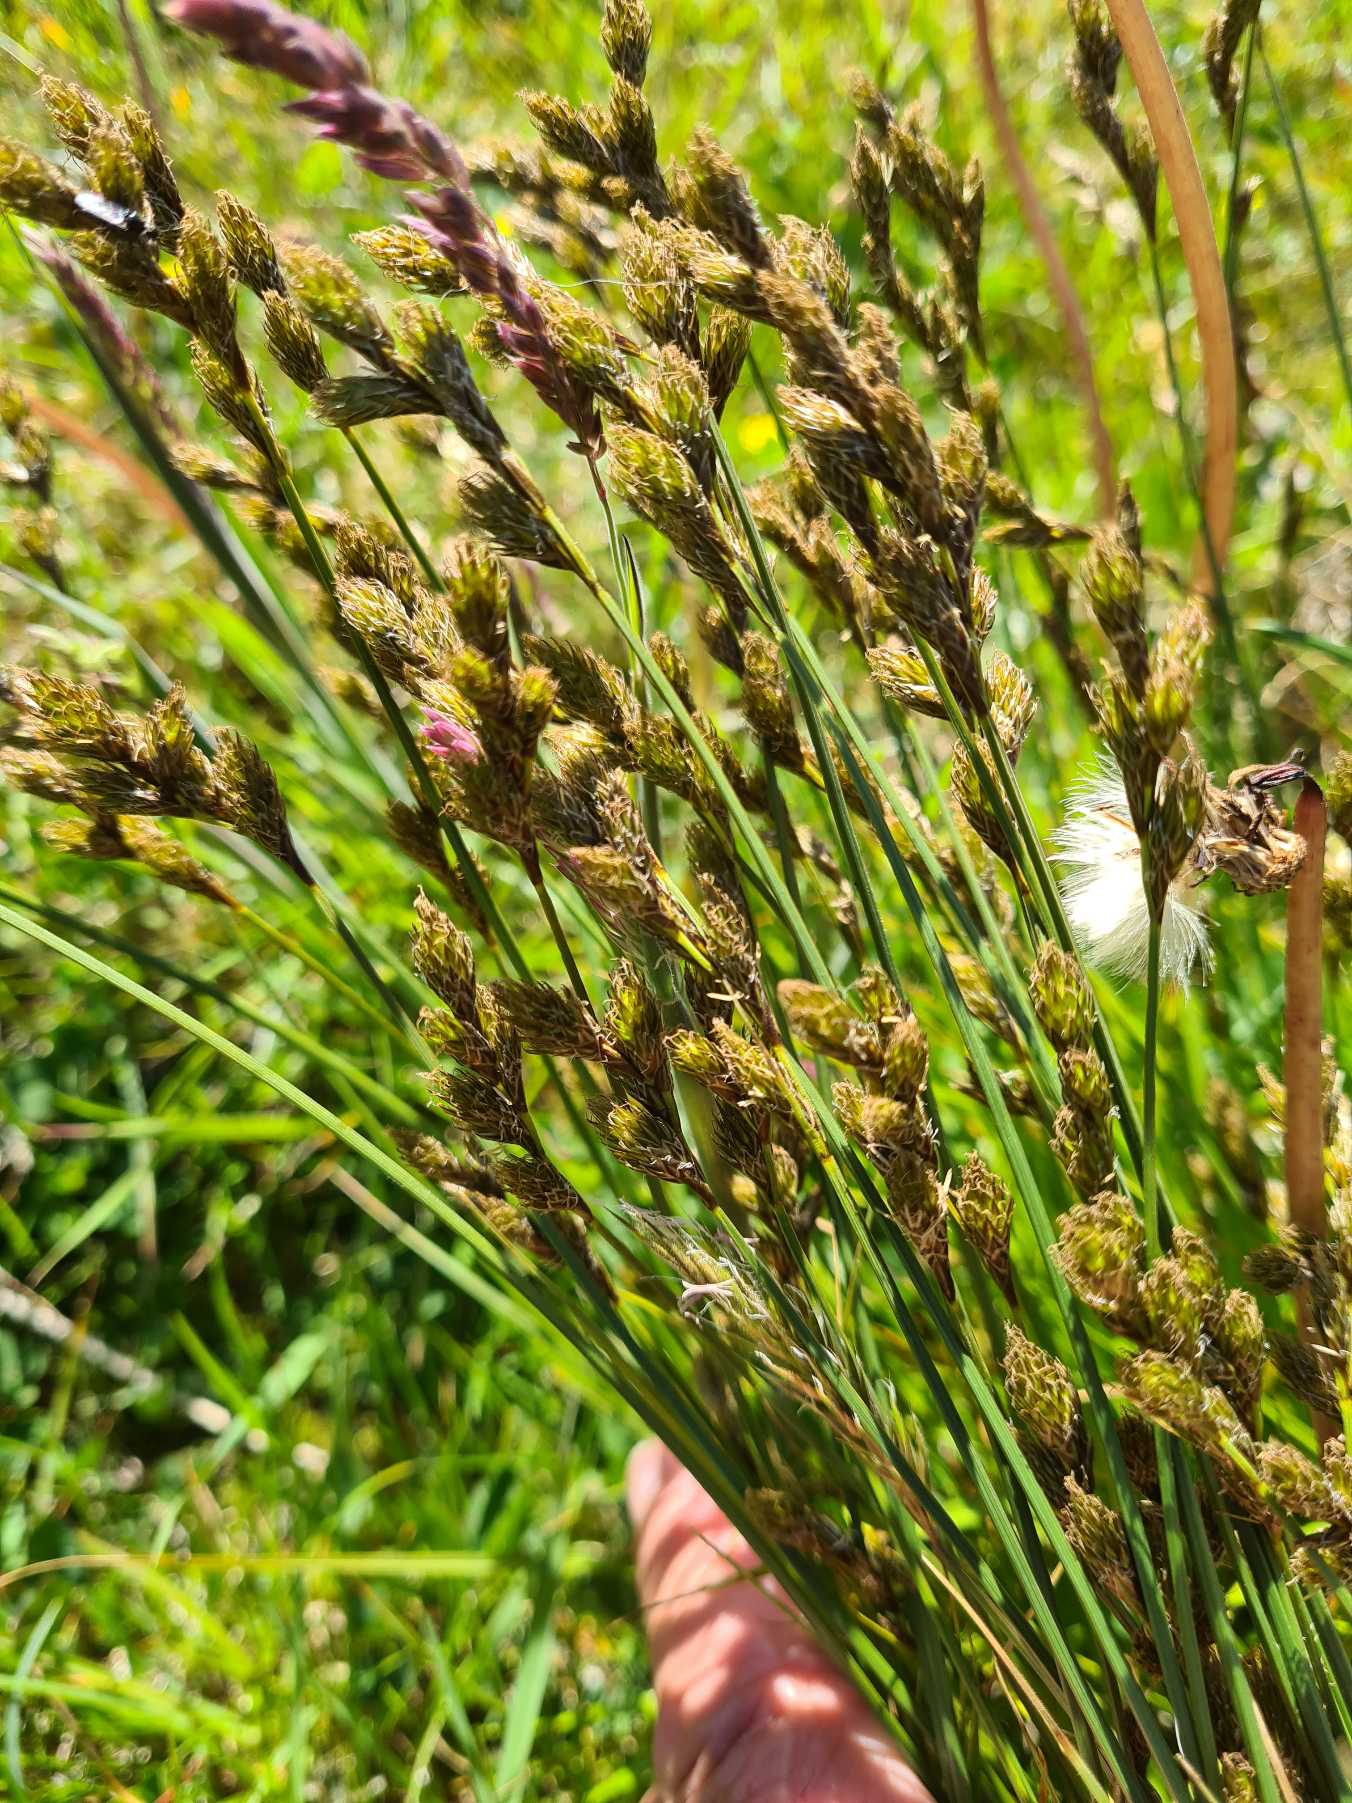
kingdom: Plantae
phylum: Tracheophyta
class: Liliopsida
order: Poales
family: Cyperaceae
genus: Carex
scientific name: Carex leporina
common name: Hare-star
